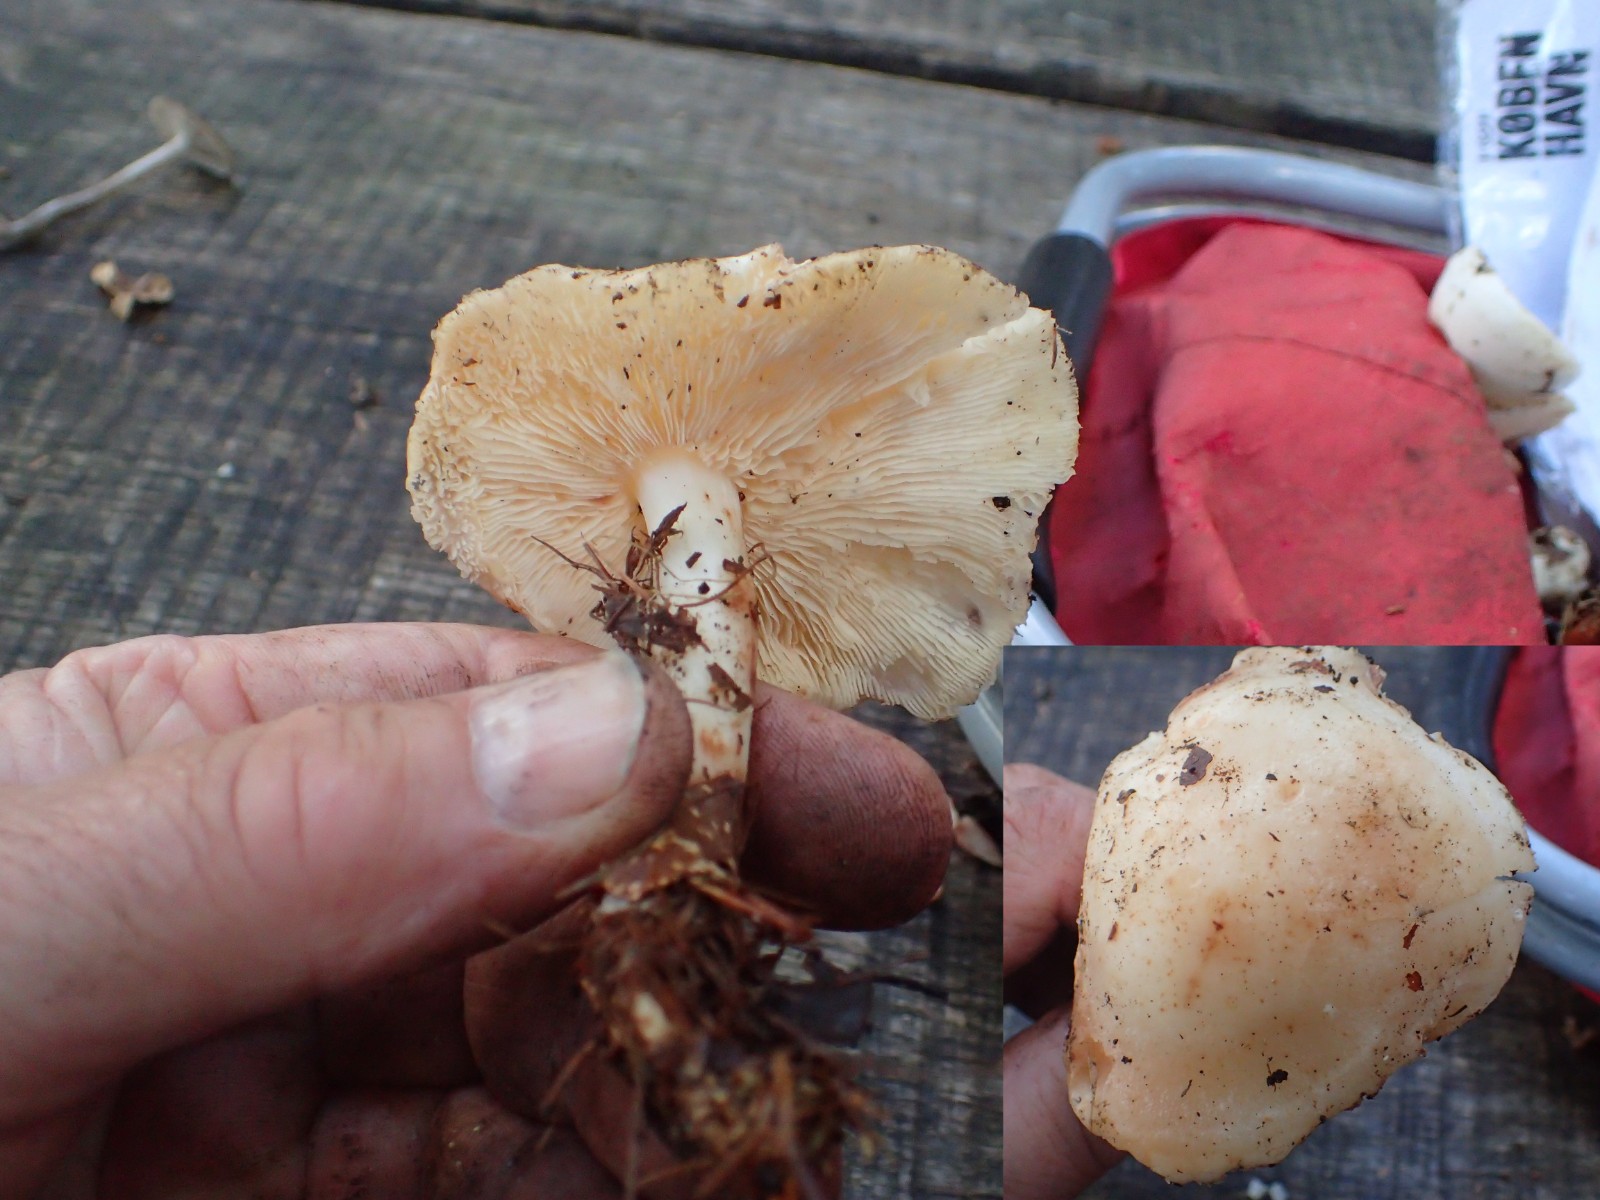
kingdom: Fungi
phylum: Basidiomycota
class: Agaricomycetes
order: Agaricales
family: Omphalotaceae
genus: Rhodocollybia
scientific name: Rhodocollybia maculata
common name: plettet fladhat
